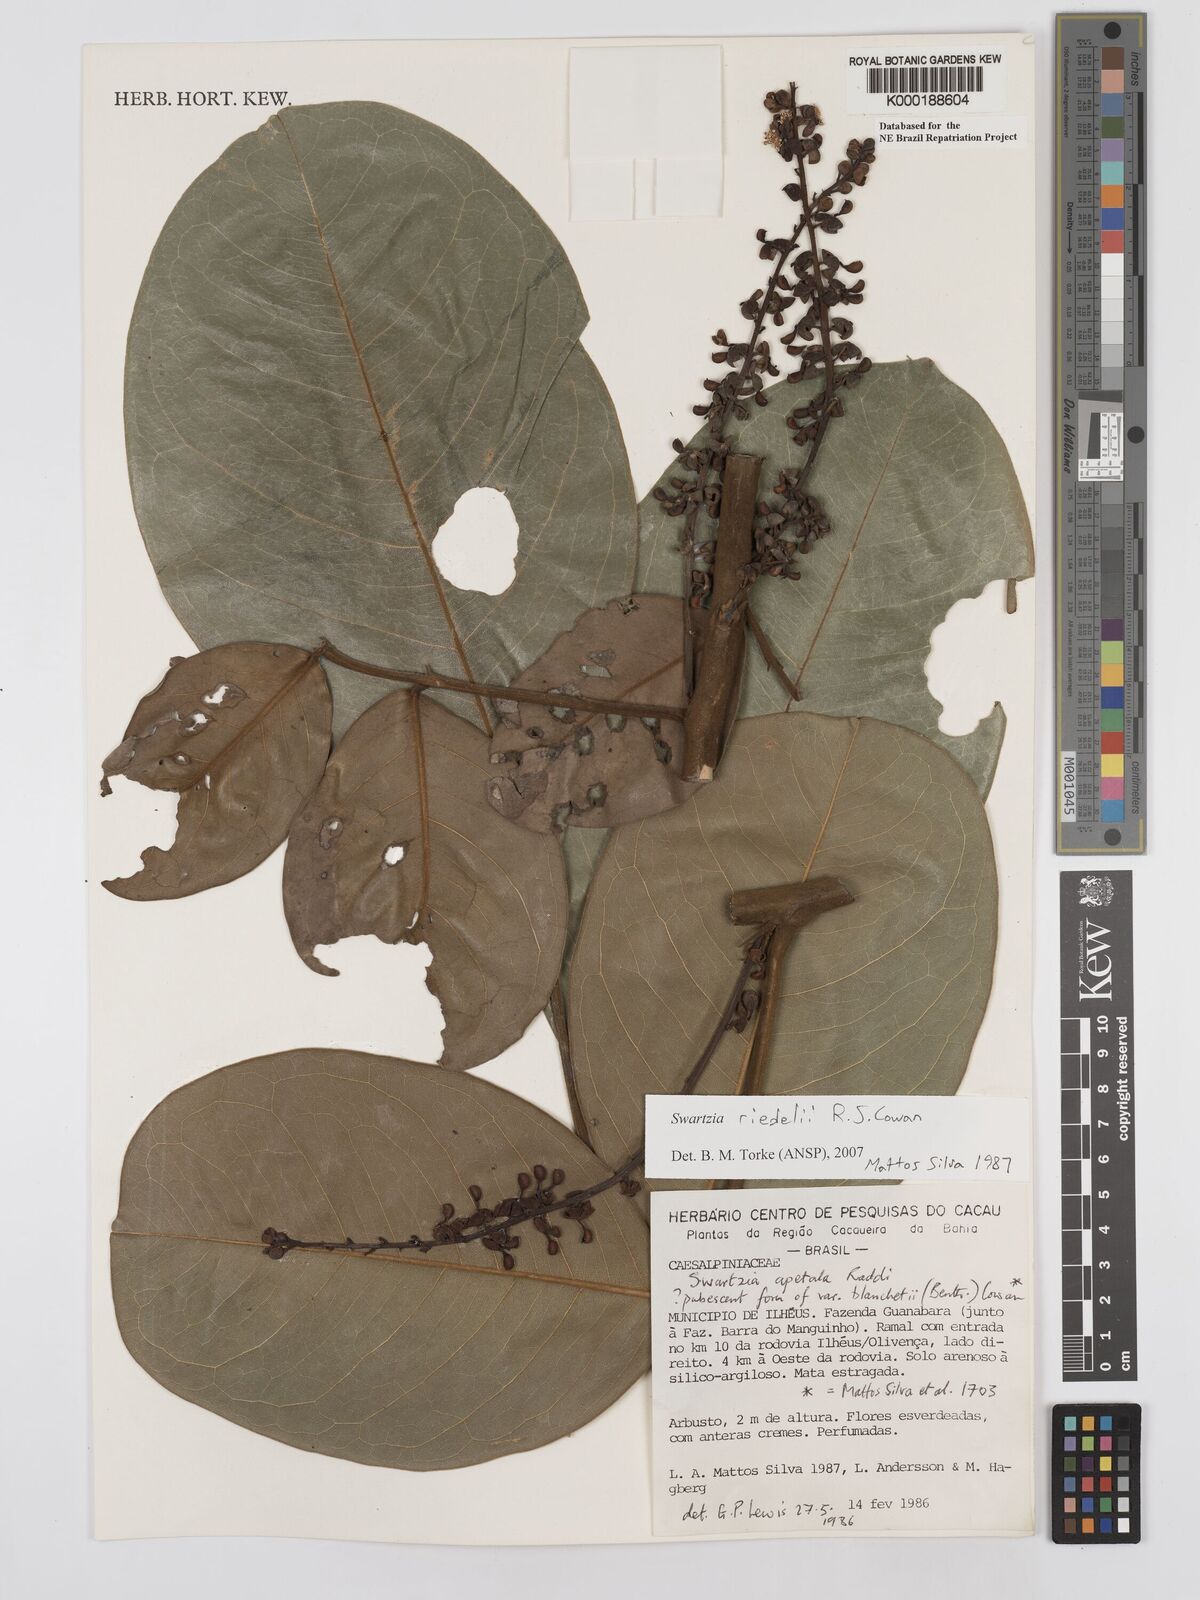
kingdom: Plantae
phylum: Tracheophyta
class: Magnoliopsida
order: Fabales
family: Fabaceae
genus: Swartzia
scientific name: Swartzia apetala
